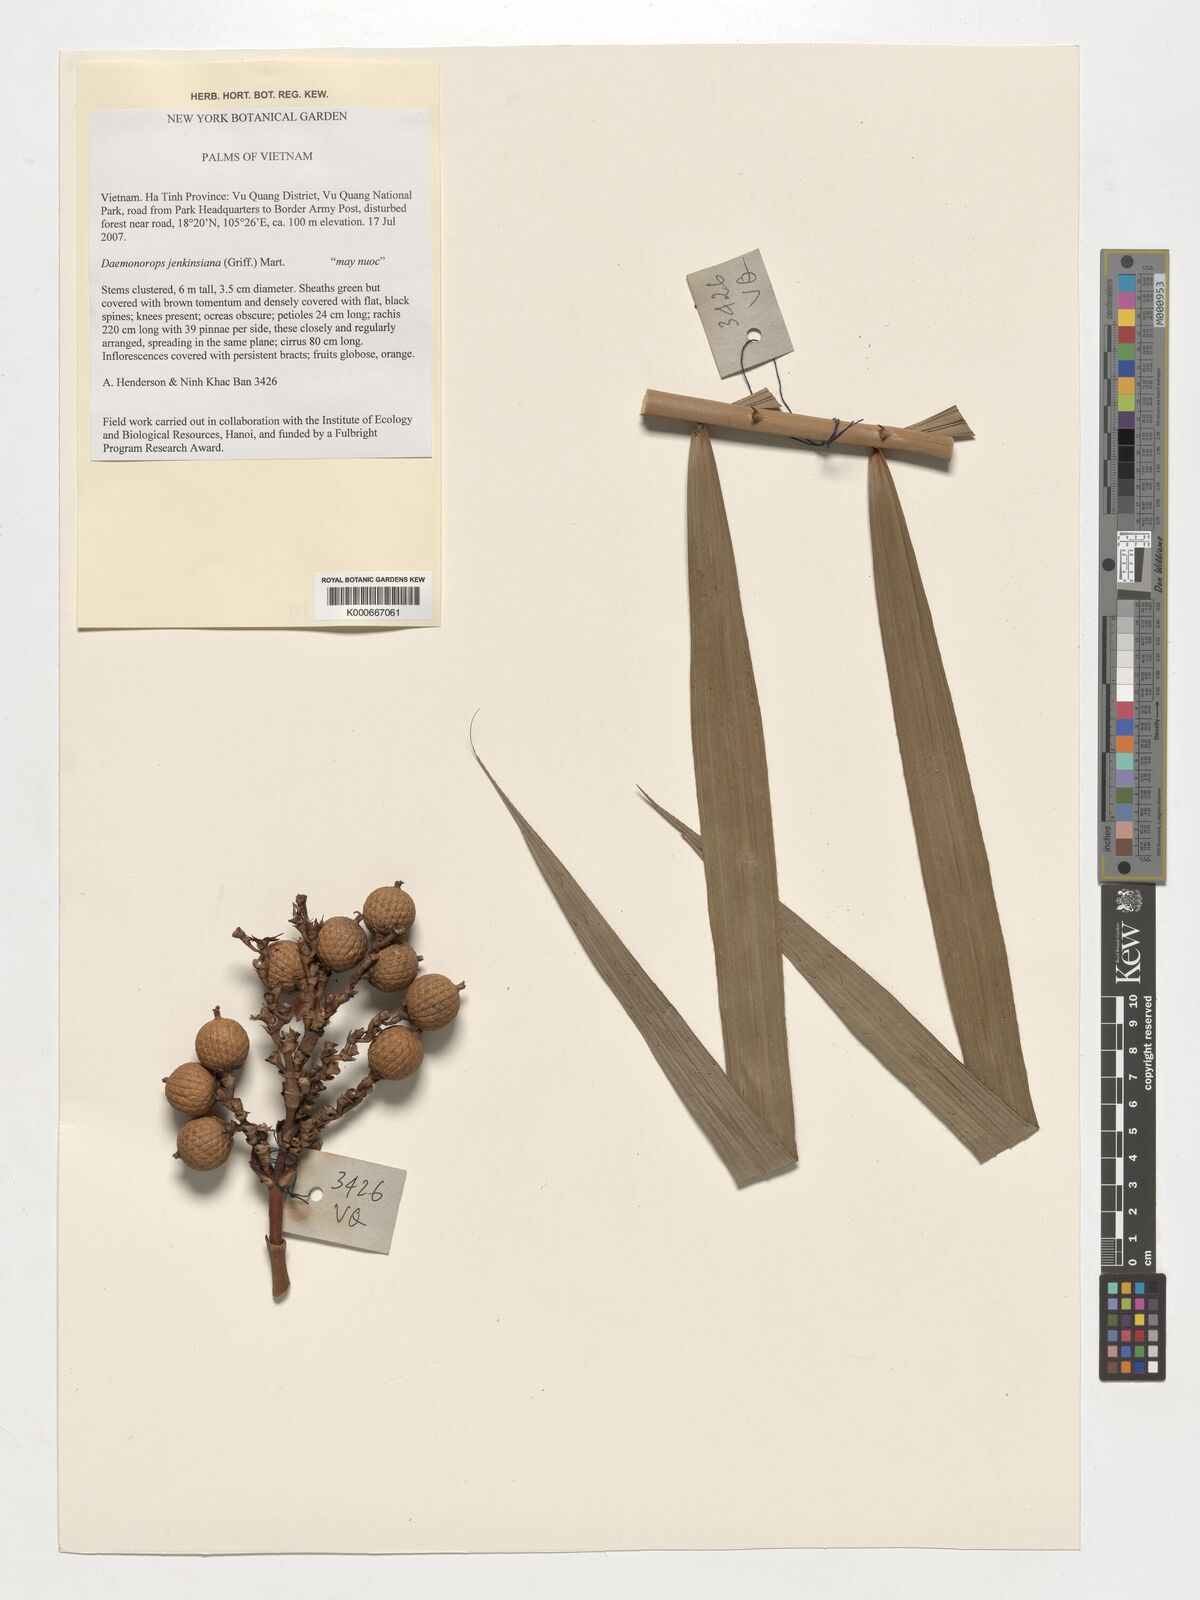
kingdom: Plantae
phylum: Tracheophyta
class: Liliopsida
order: Arecales
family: Arecaceae
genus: Calamus
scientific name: Calamus melanochaetes
